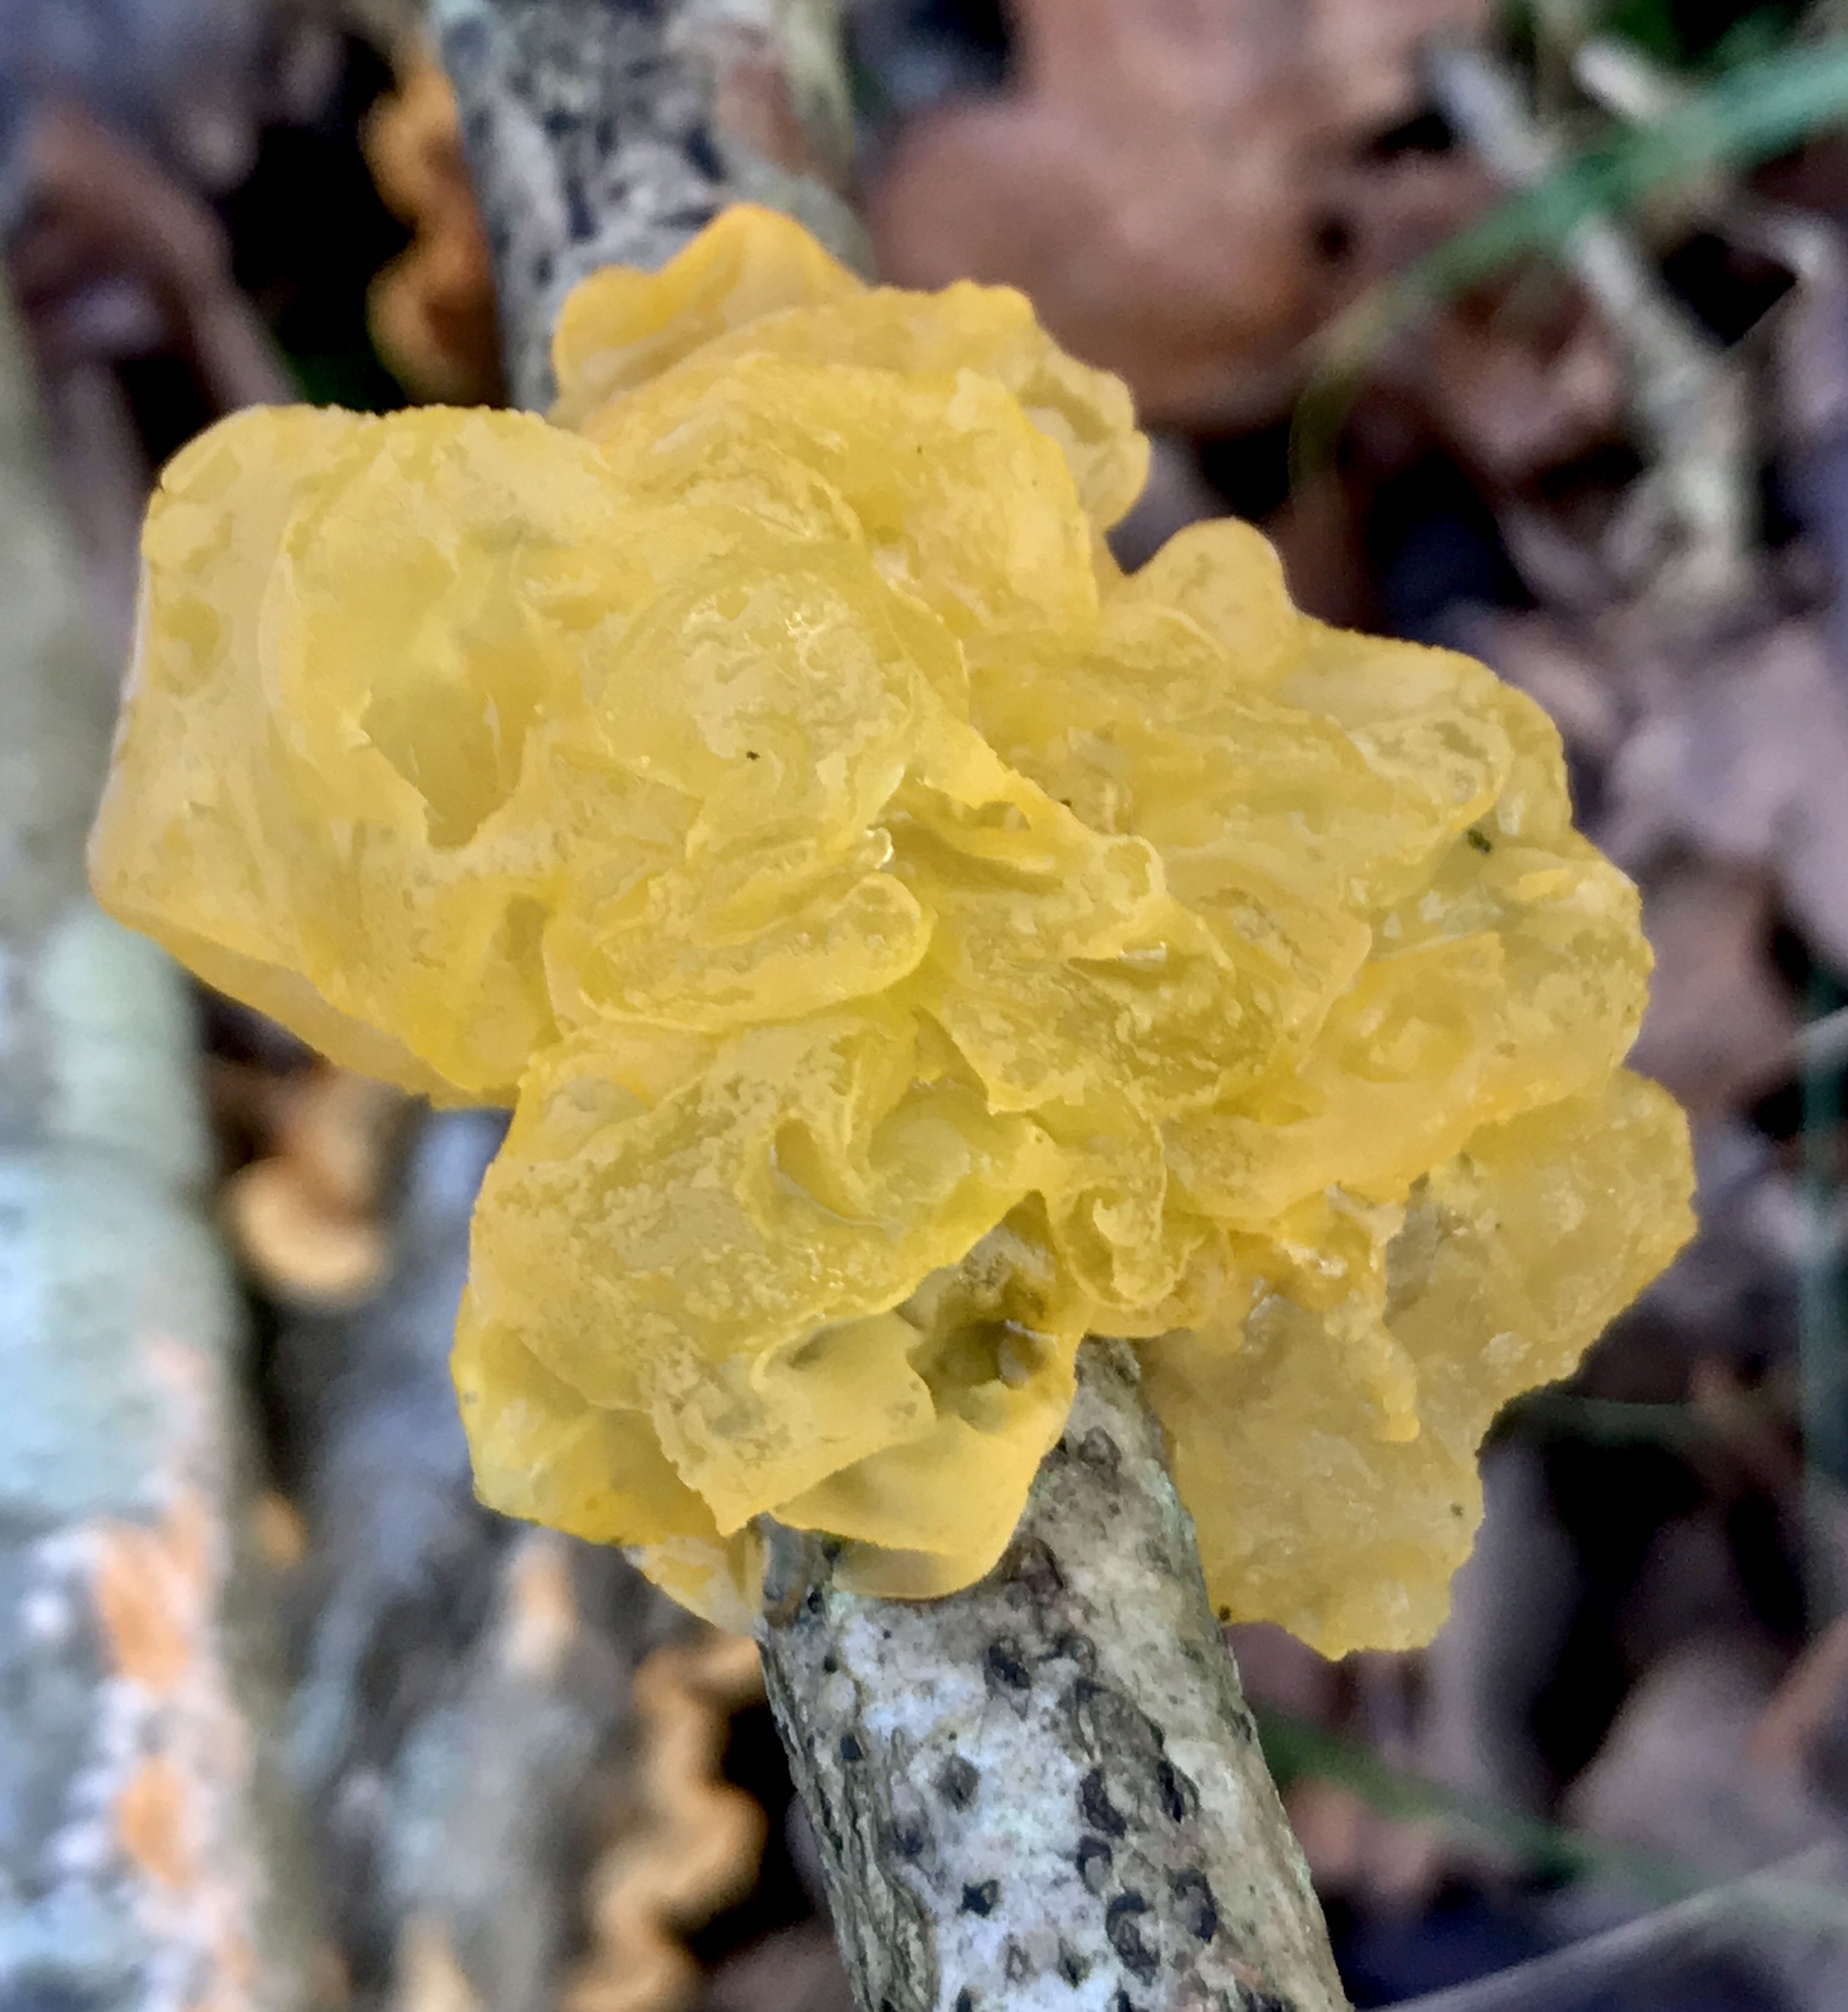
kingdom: Fungi
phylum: Basidiomycota
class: Tremellomycetes
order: Tremellales
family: Tremellaceae
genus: Tremella
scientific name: Tremella mesenterica
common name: gul bævresvamp
